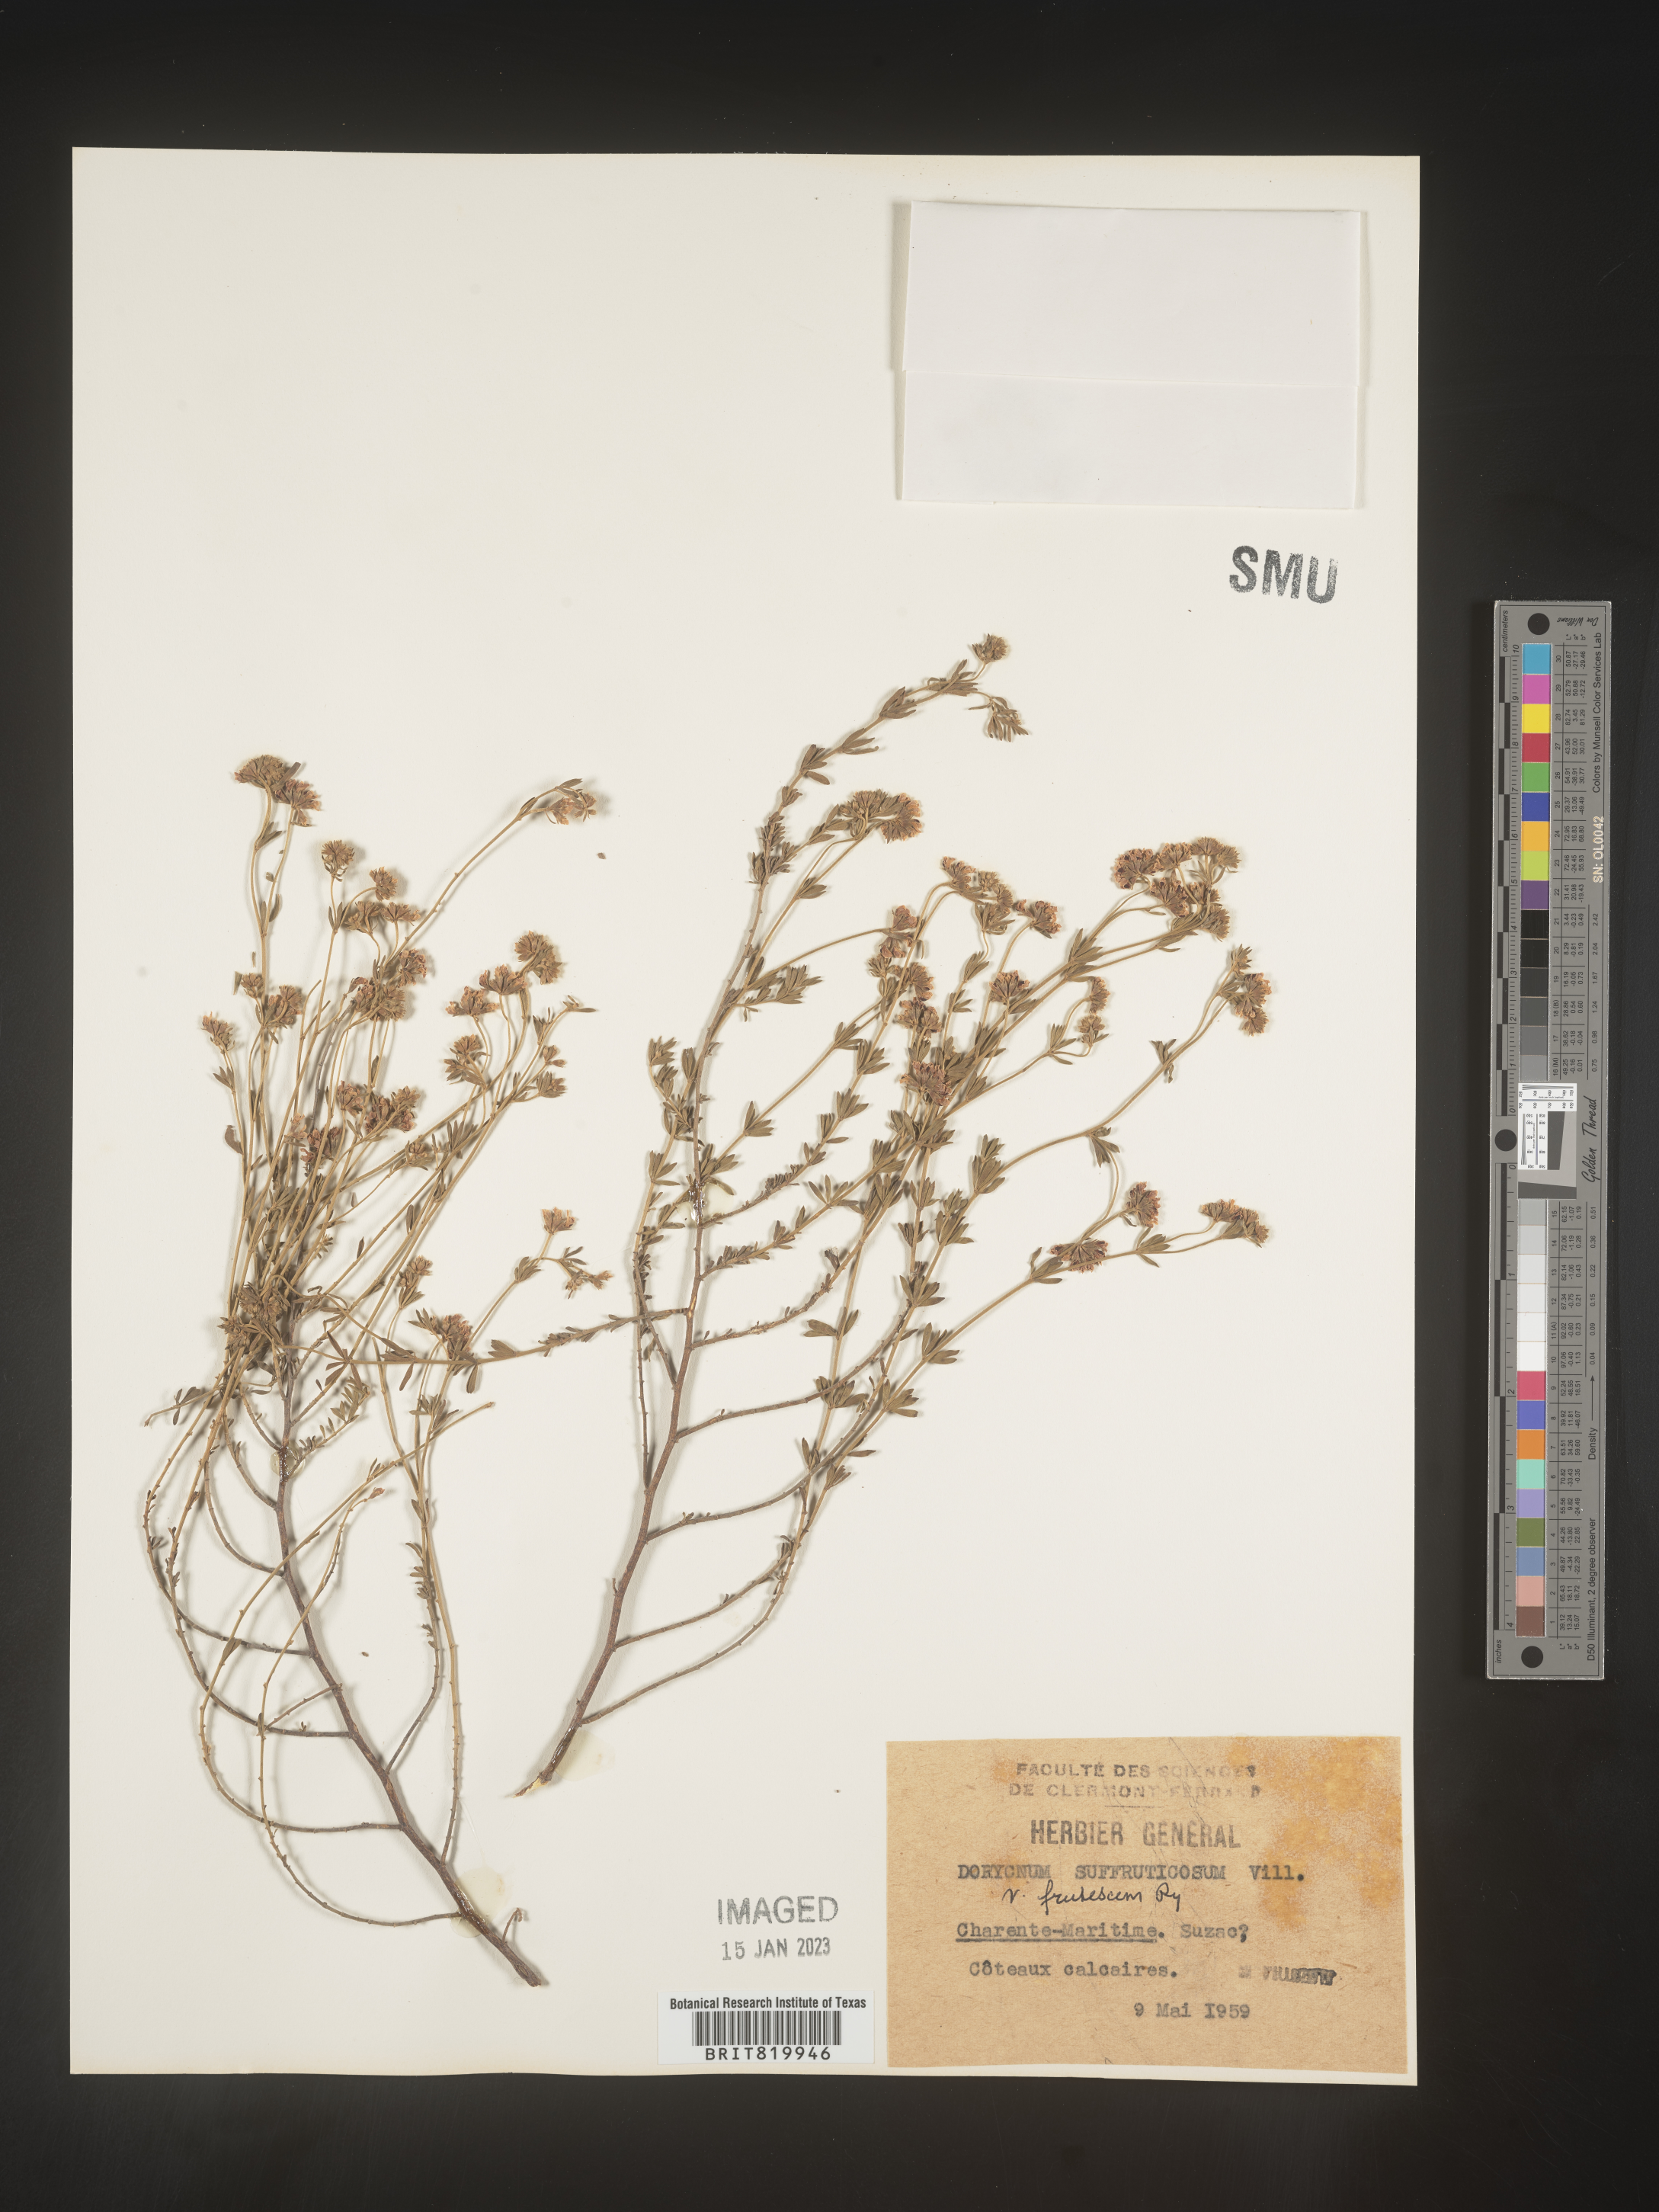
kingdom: Plantae
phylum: Tracheophyta
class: Magnoliopsida
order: Fabales
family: Fabaceae
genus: Lotus
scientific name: Lotus
